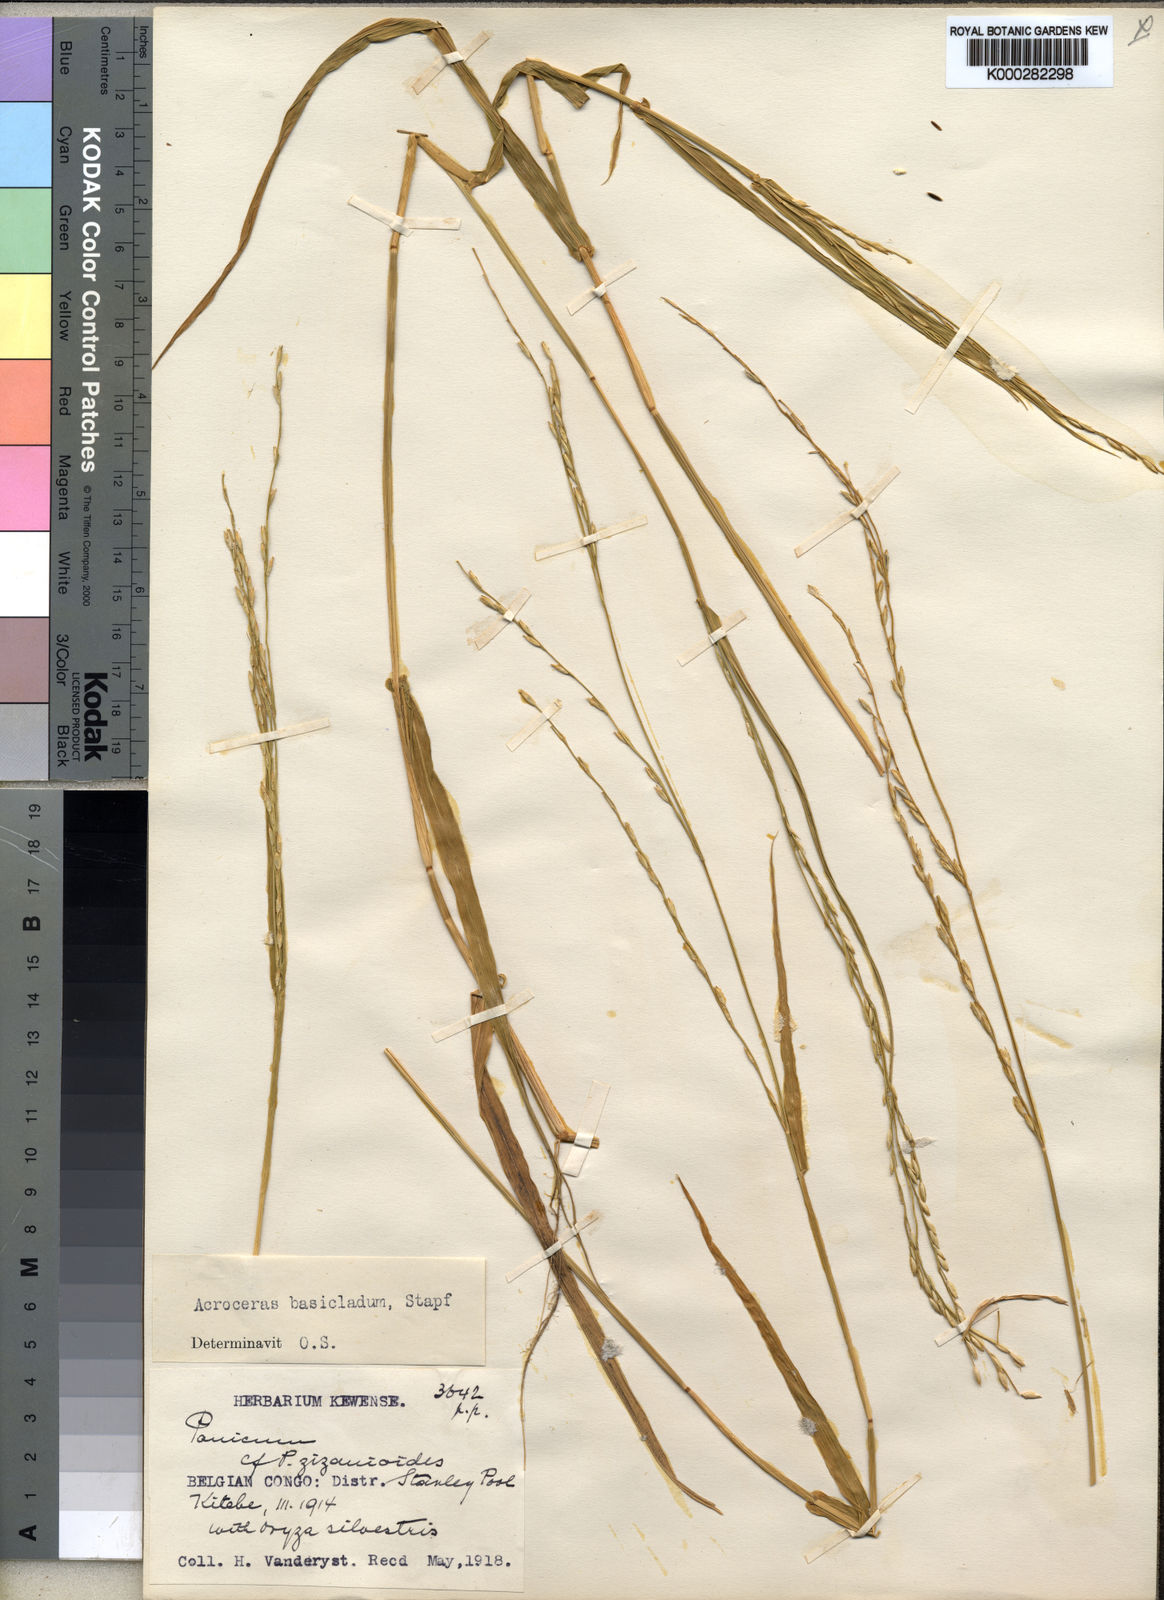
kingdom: Plantae
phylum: Tracheophyta
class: Liliopsida
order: Poales
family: Poaceae
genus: Acroceras
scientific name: Acroceras amplectens
